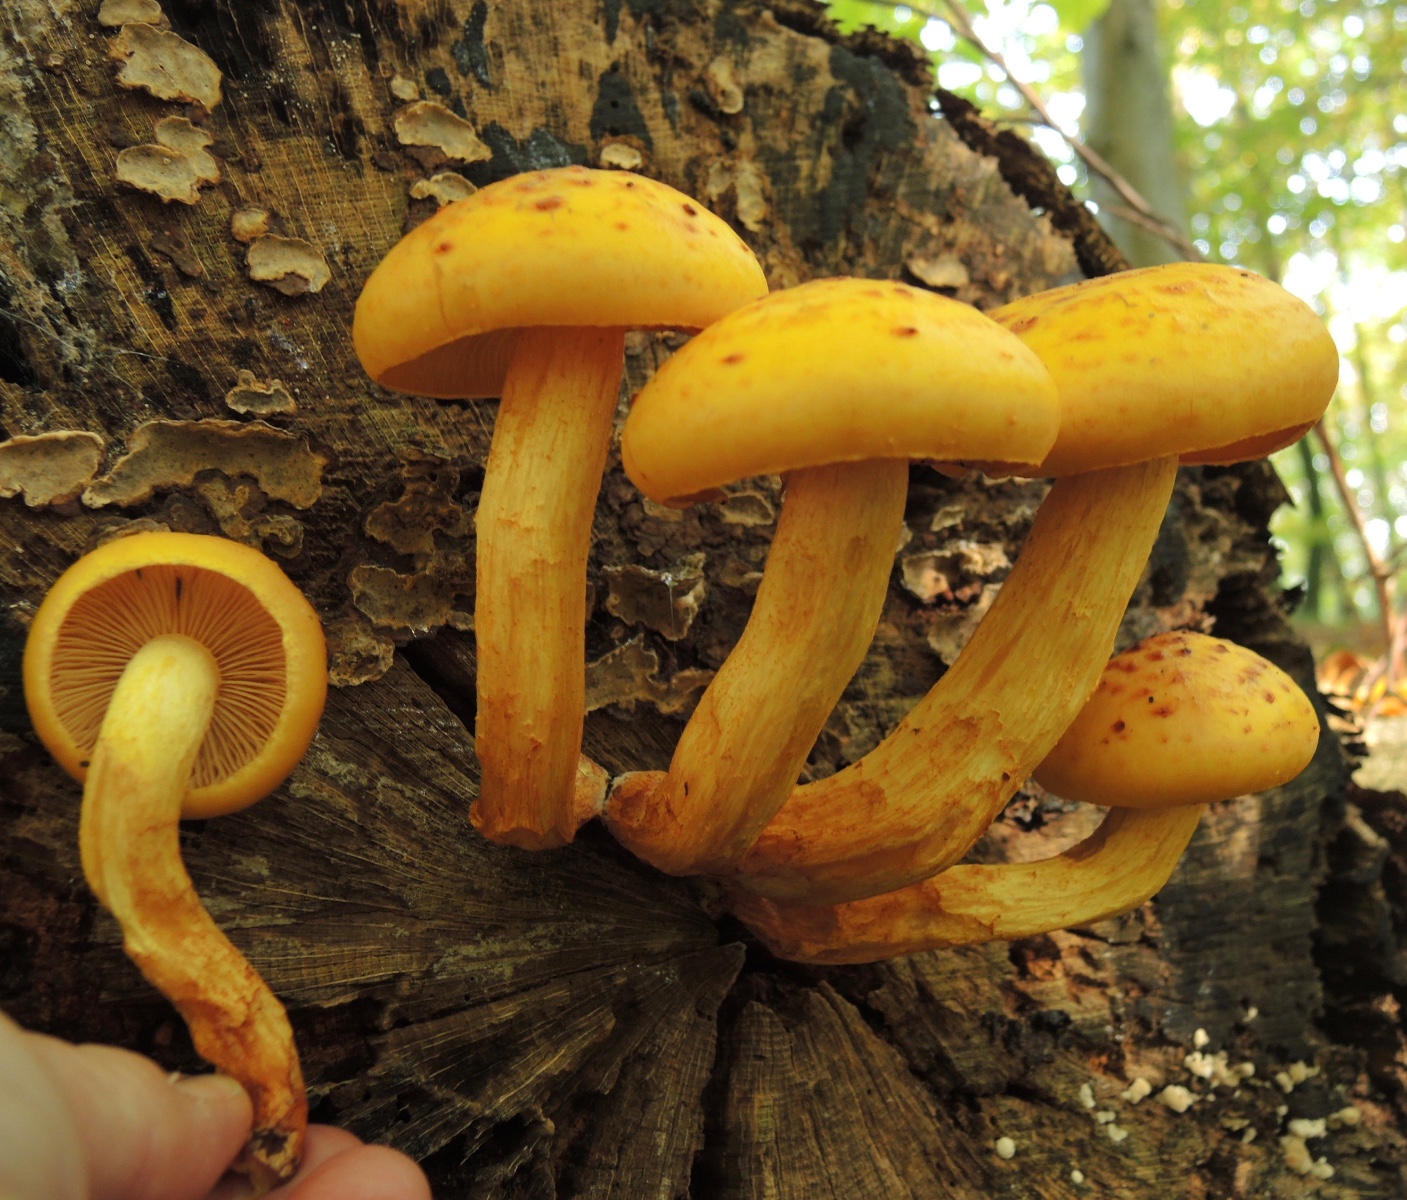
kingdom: Fungi
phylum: Basidiomycota
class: Agaricomycetes
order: Agaricales
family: Strophariaceae
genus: Pholiota
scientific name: Pholiota adiposa
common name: højtsiddende skælhat
